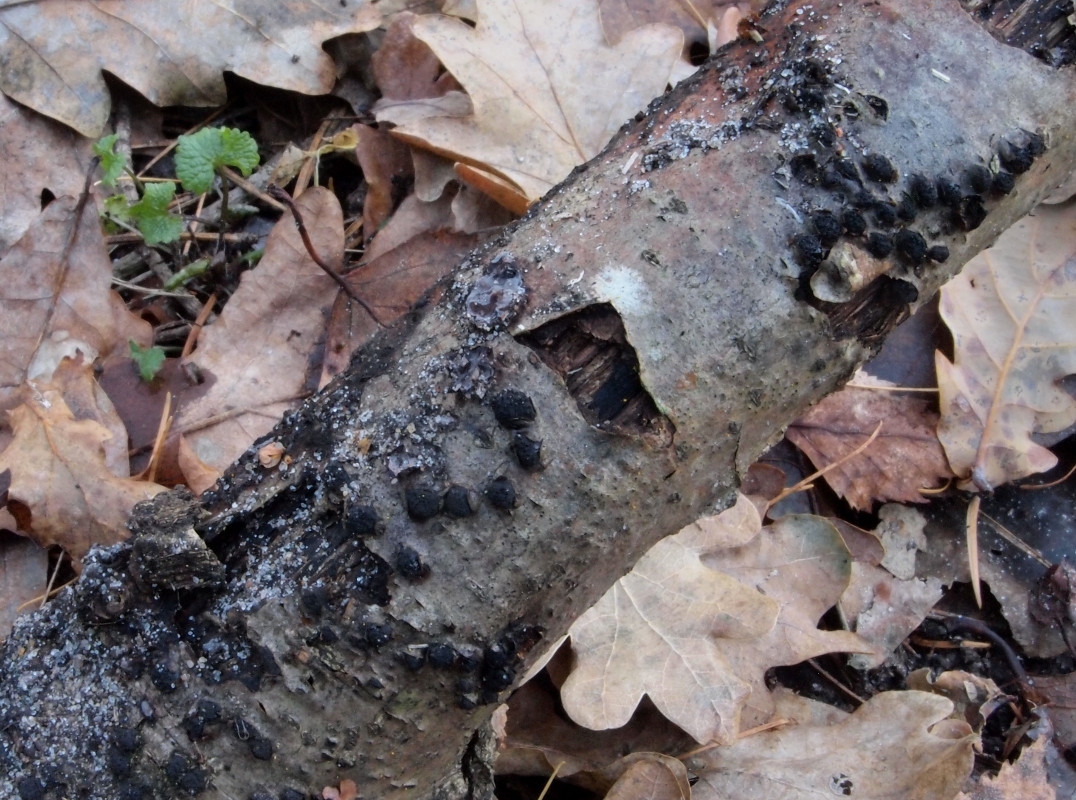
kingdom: Fungi
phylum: Ascomycota
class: Sordariomycetes
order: Xylariales
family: Diatrypaceae
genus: Diatrypella
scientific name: Diatrypella quercina
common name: ege-kulskorpe
